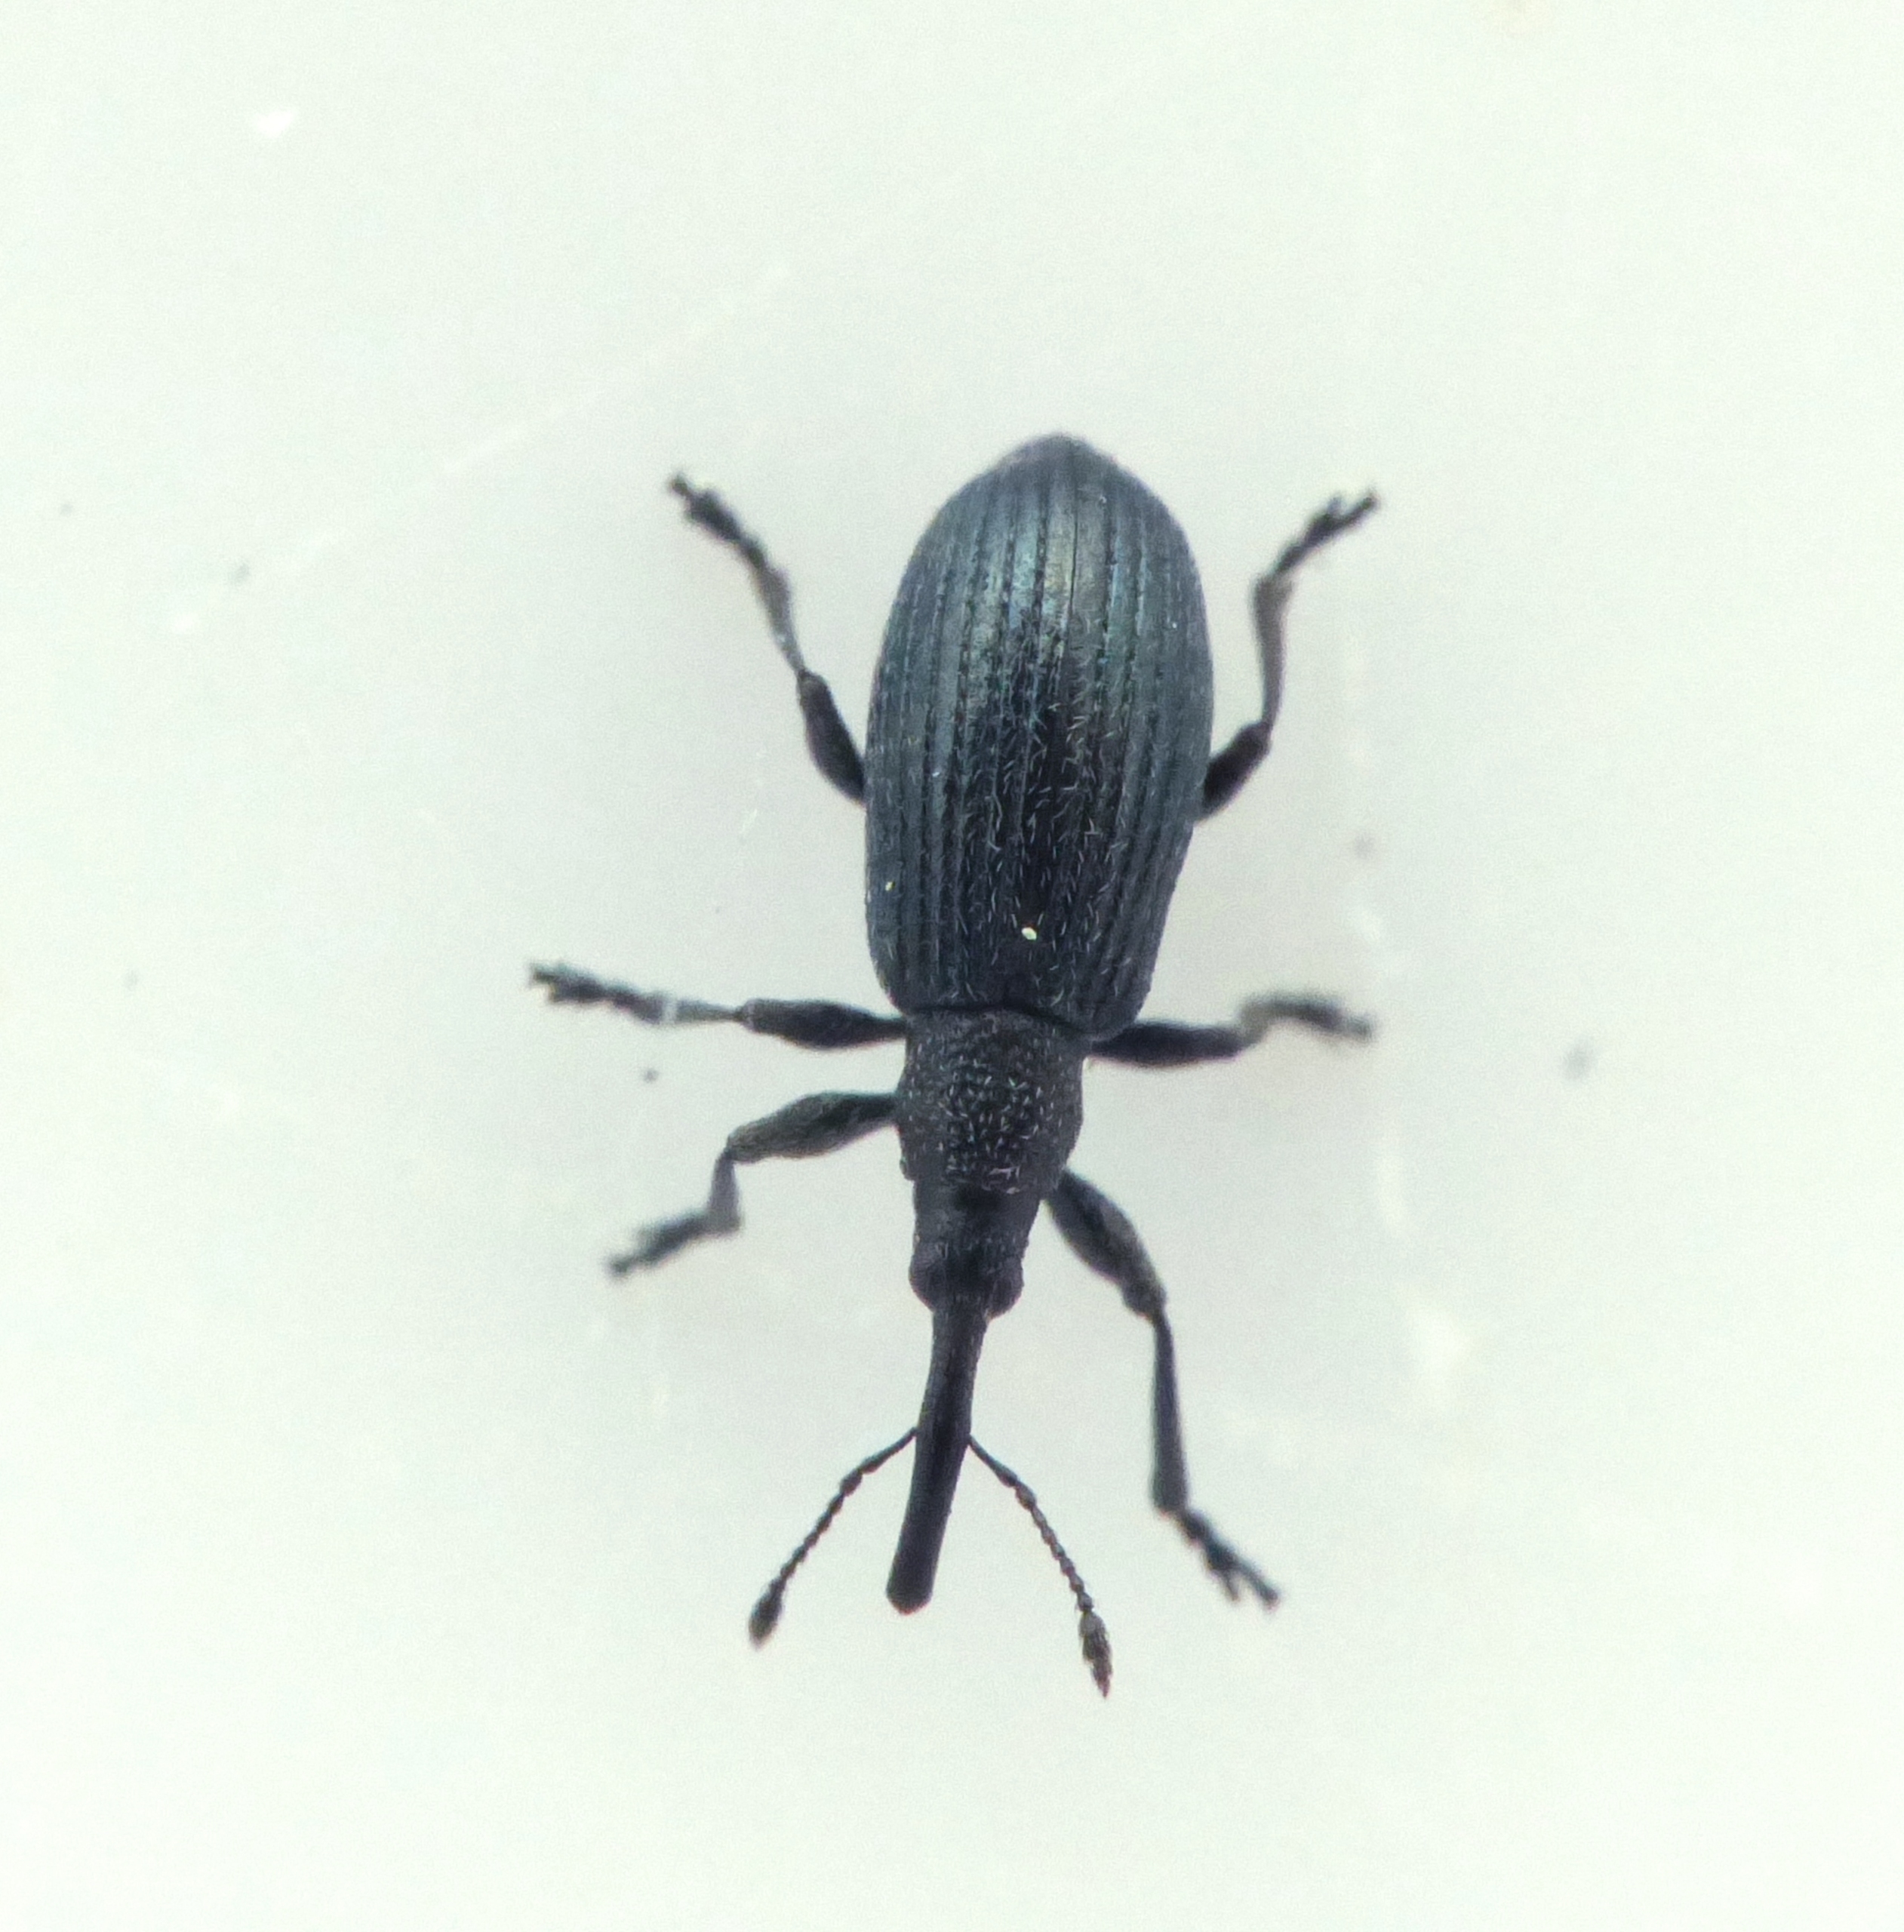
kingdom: Animalia
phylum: Arthropoda
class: Insecta
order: Coleoptera
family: Brentidae
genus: Stenopterapion
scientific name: Stenopterapion meliloti
